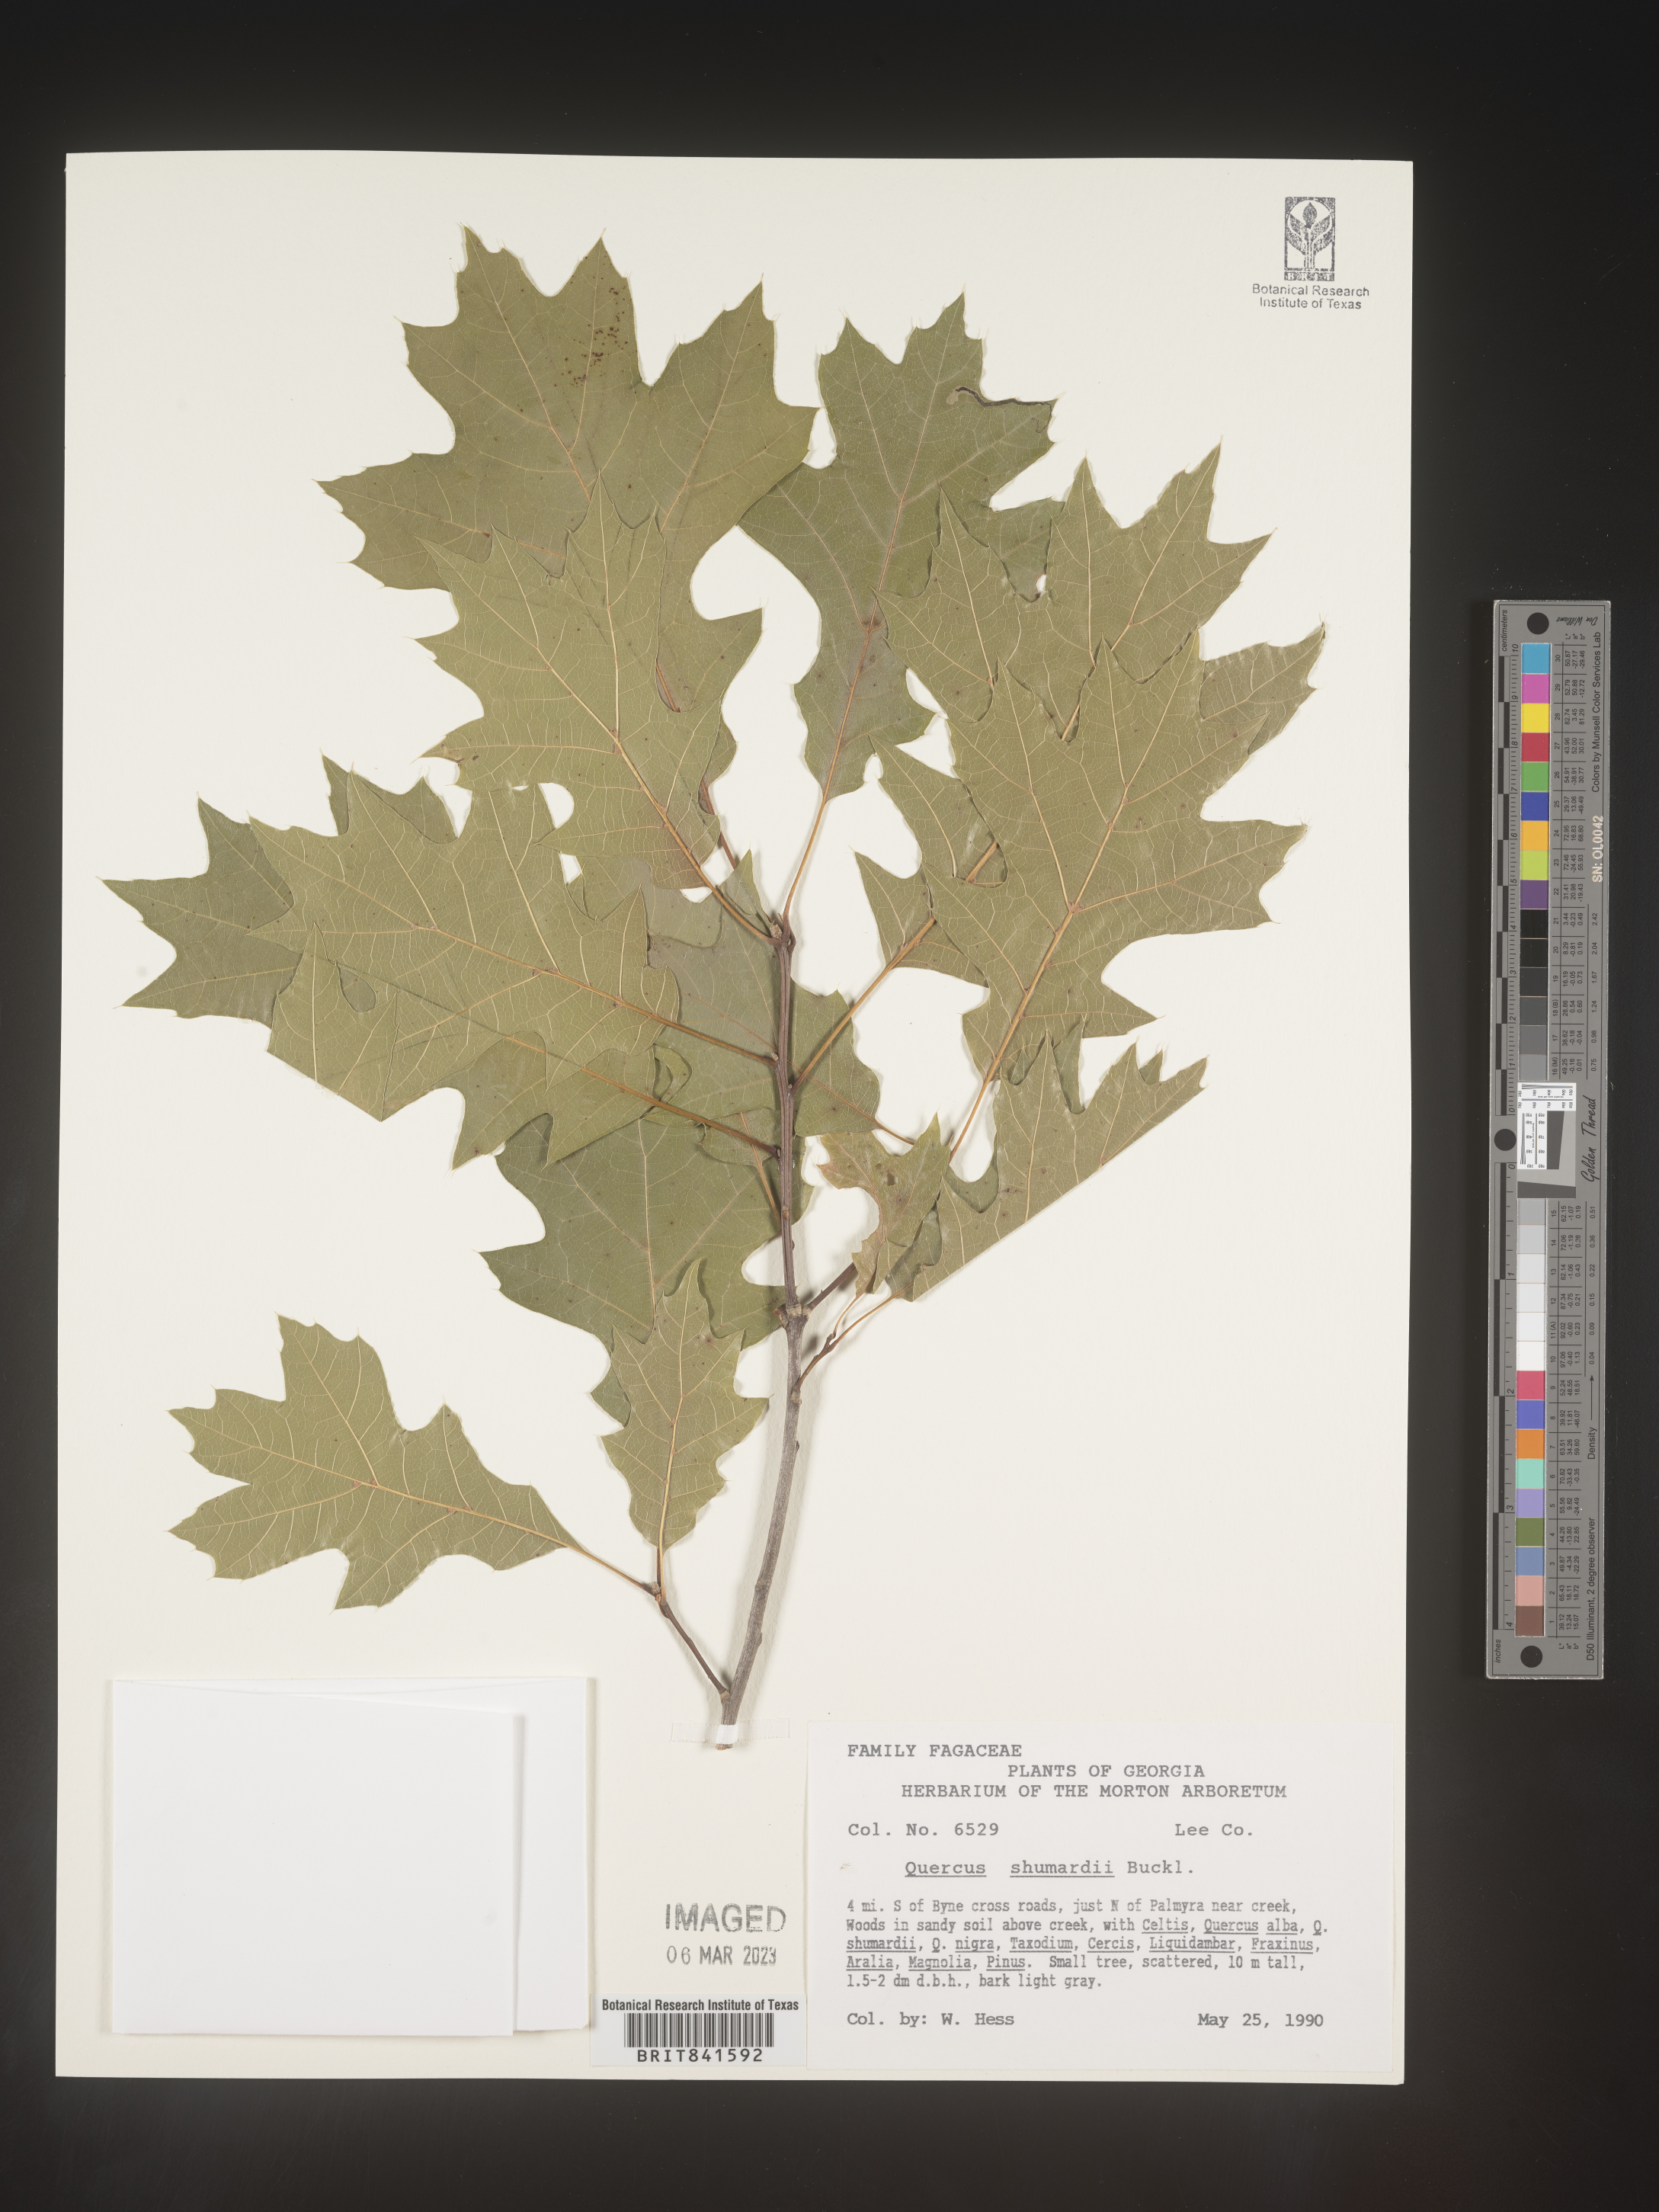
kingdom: Plantae
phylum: Tracheophyta
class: Magnoliopsida
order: Fagales
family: Fagaceae
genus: Quercus
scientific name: Quercus shumardii
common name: Shumard oak
